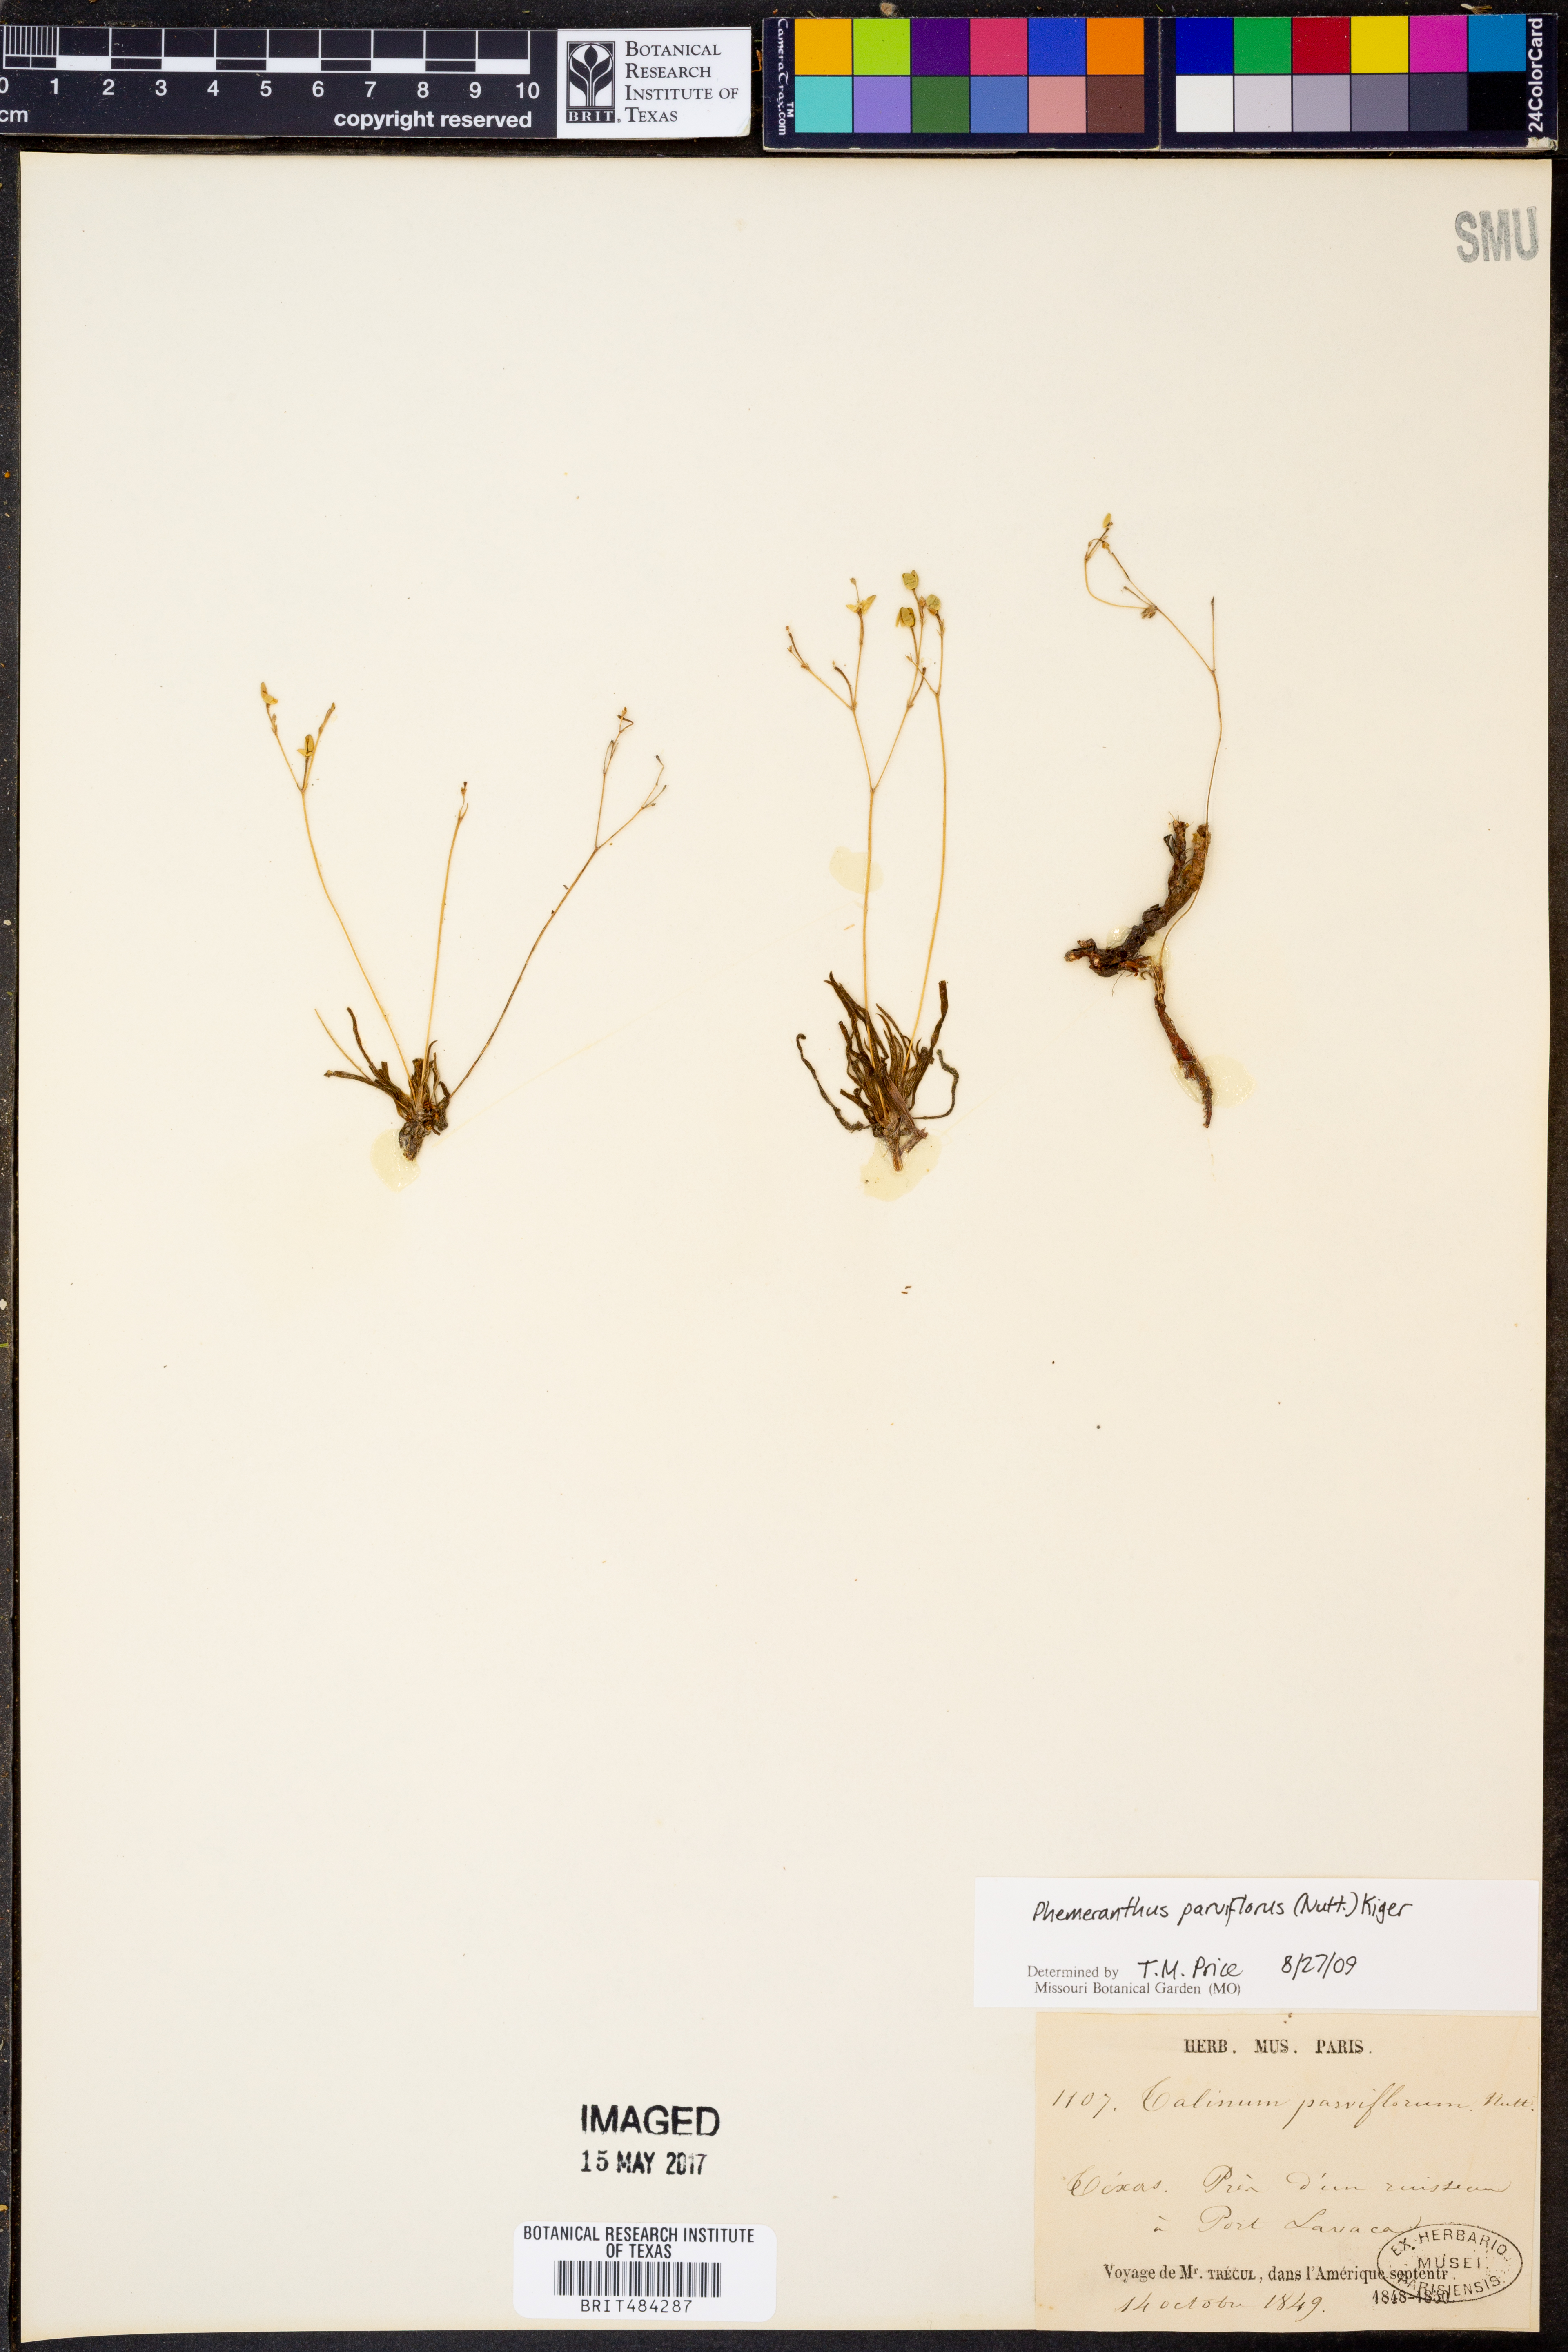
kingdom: Plantae
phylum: Tracheophyta
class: Magnoliopsida
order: Caryophyllales
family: Montiaceae
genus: Phemeranthus
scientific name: Phemeranthus parviflorus
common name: Sunbright
